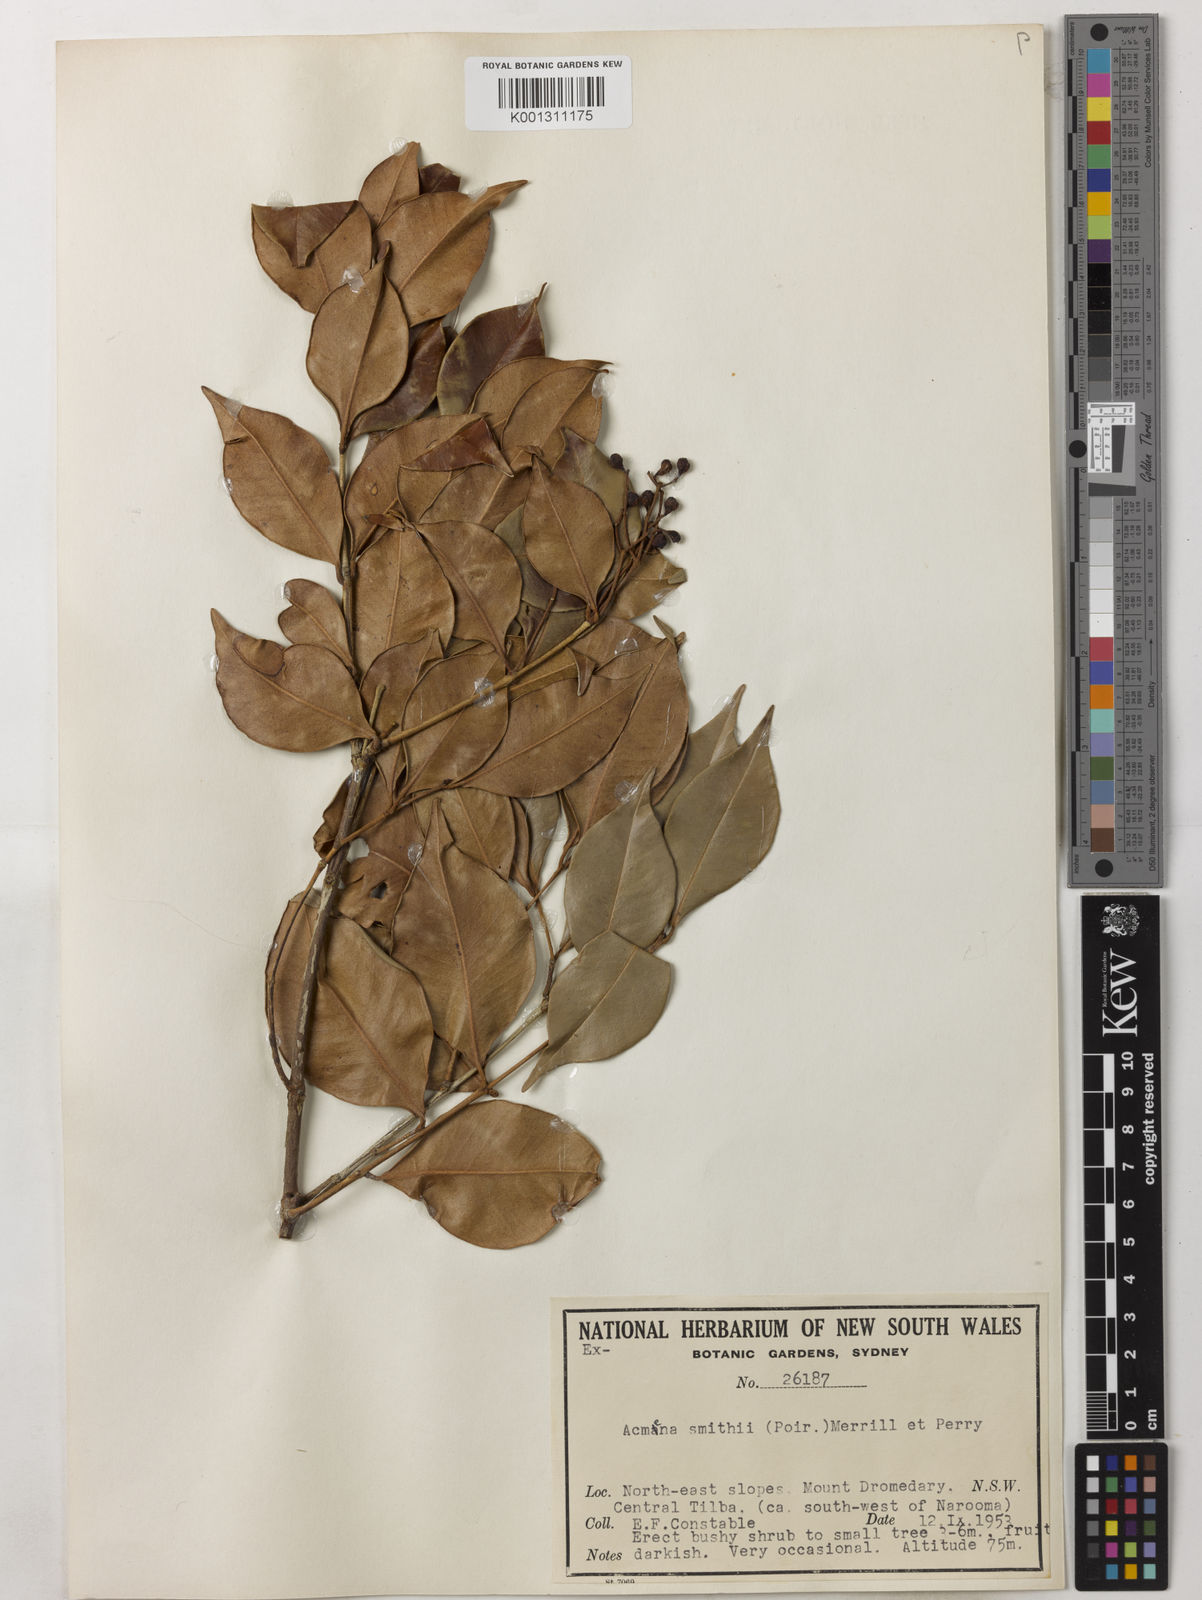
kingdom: Plantae
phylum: Tracheophyta
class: Magnoliopsida
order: Myrtales
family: Myrtaceae
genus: Syzygium
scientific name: Syzygium smithii
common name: Lilly-pilly
